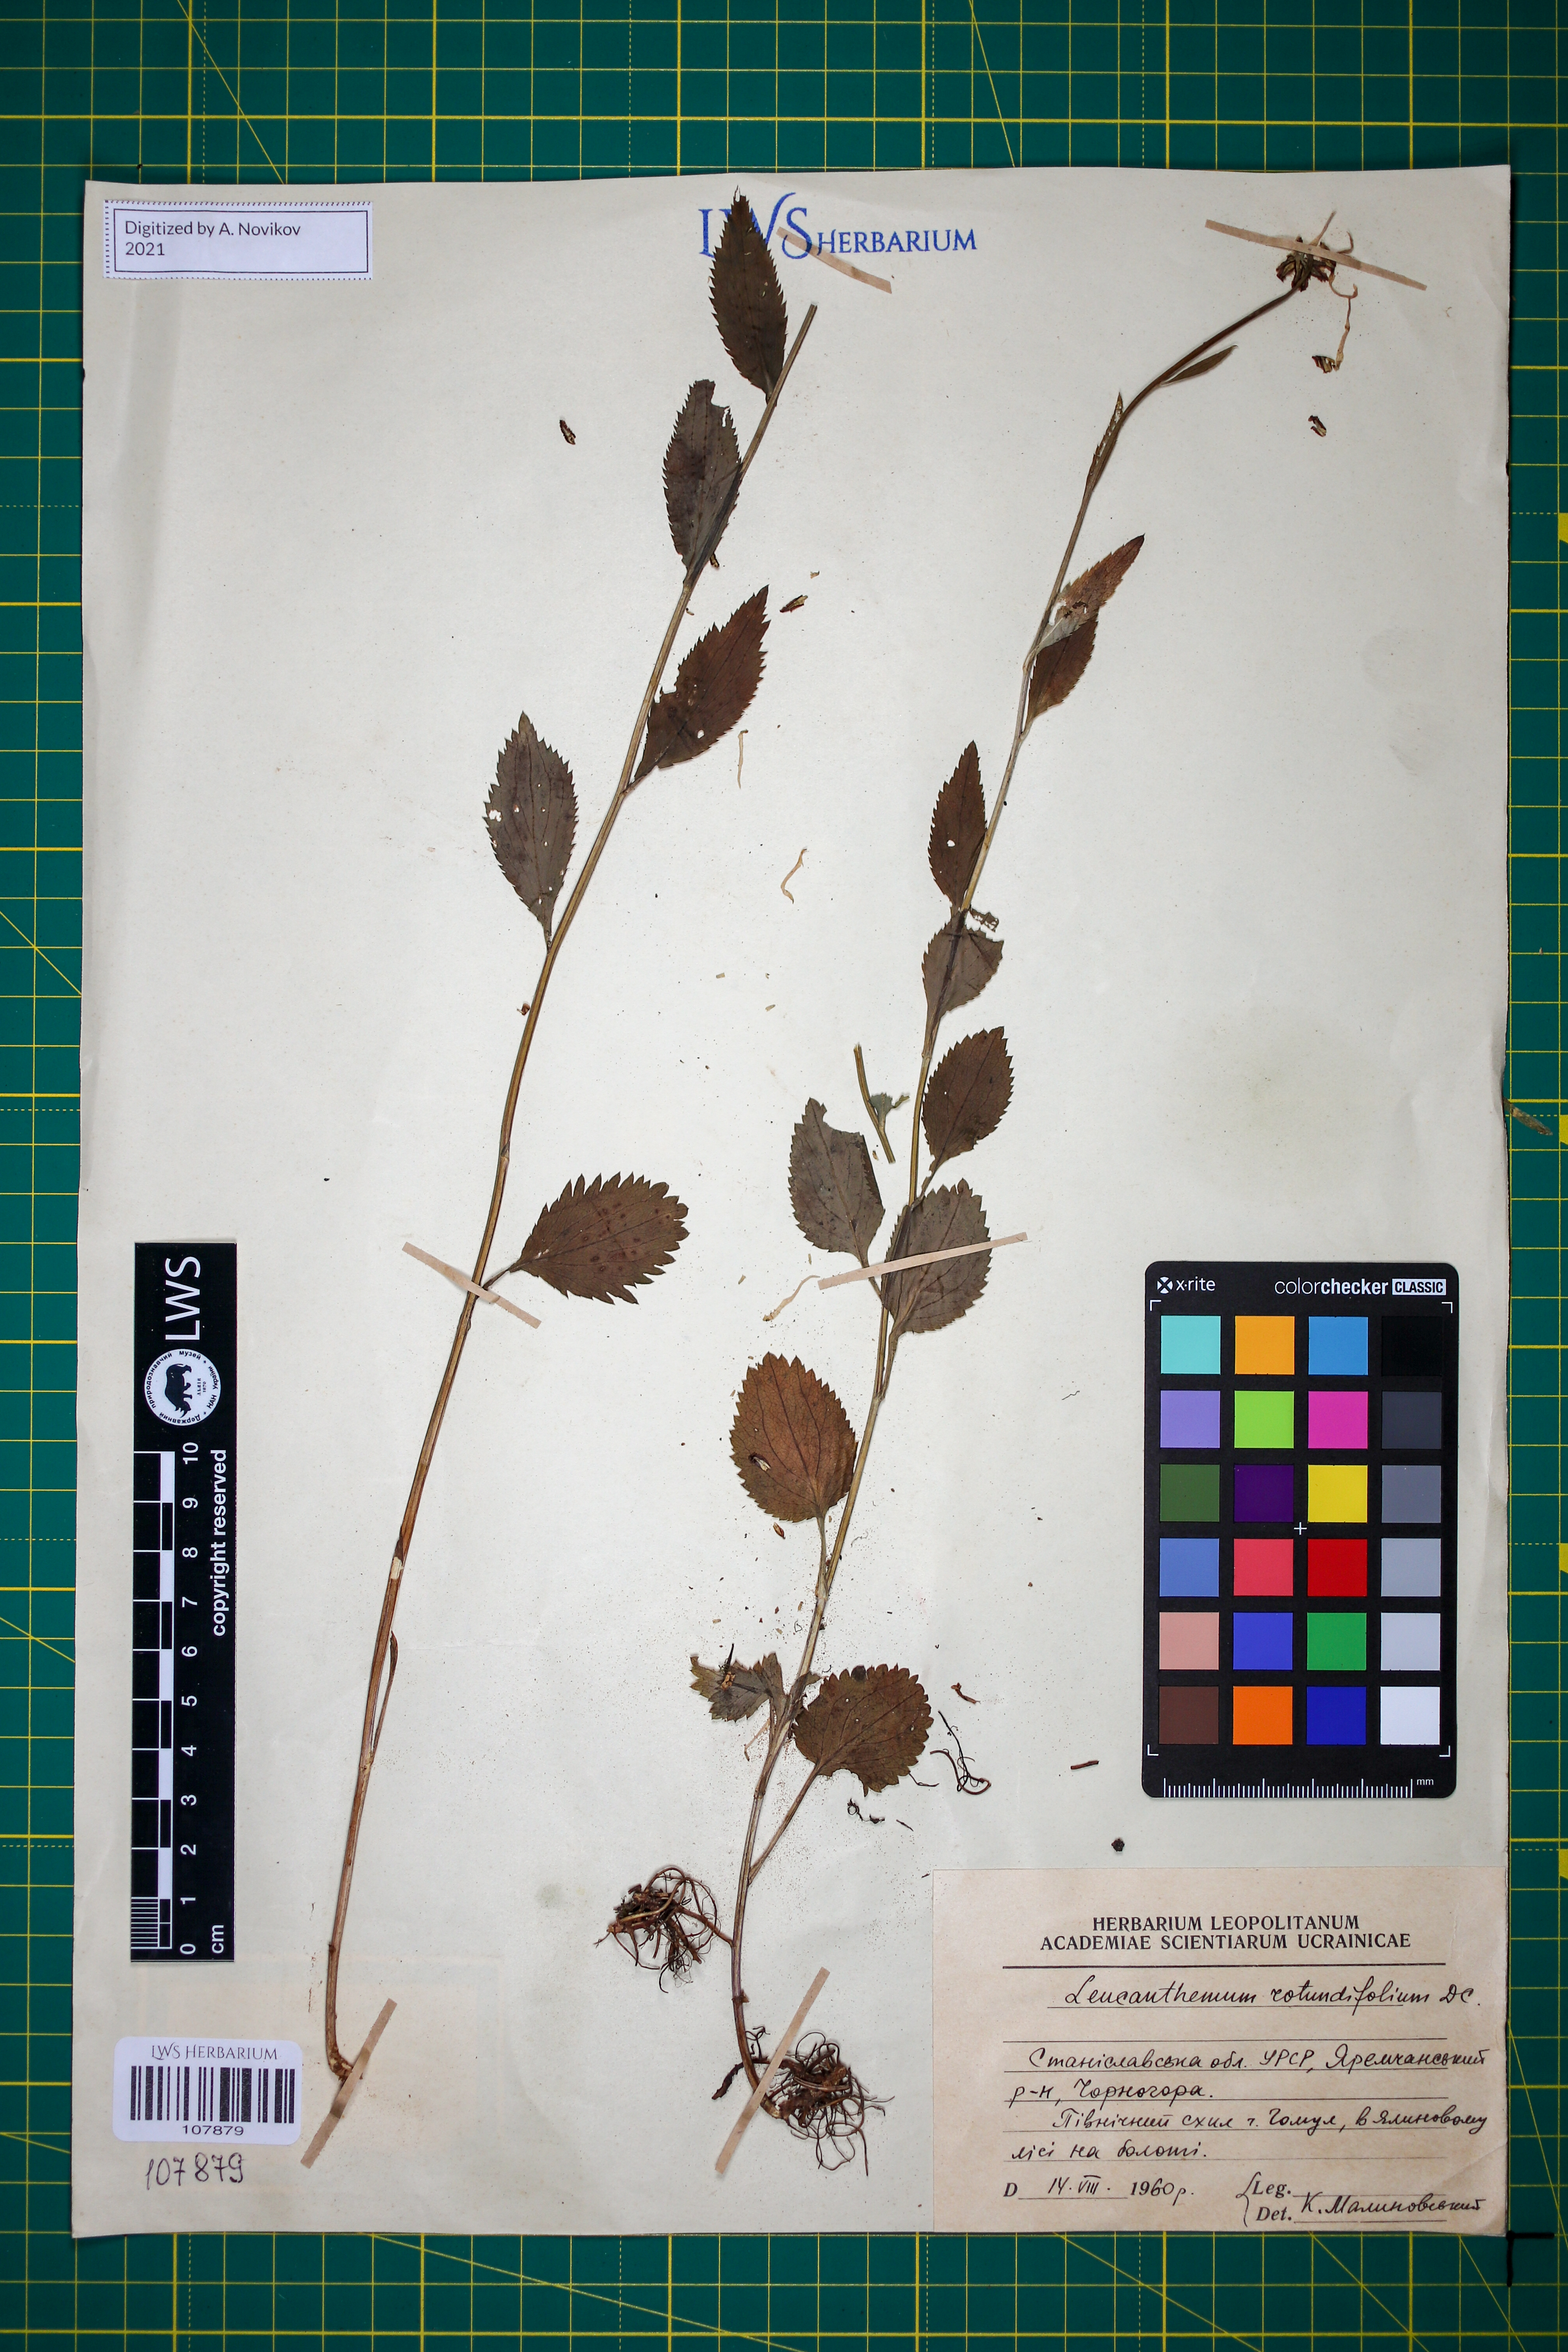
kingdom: Plantae
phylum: Tracheophyta
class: Magnoliopsida
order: Asterales
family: Asteraceae
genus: Leucanthemum
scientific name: Leucanthemum rotundifolium
